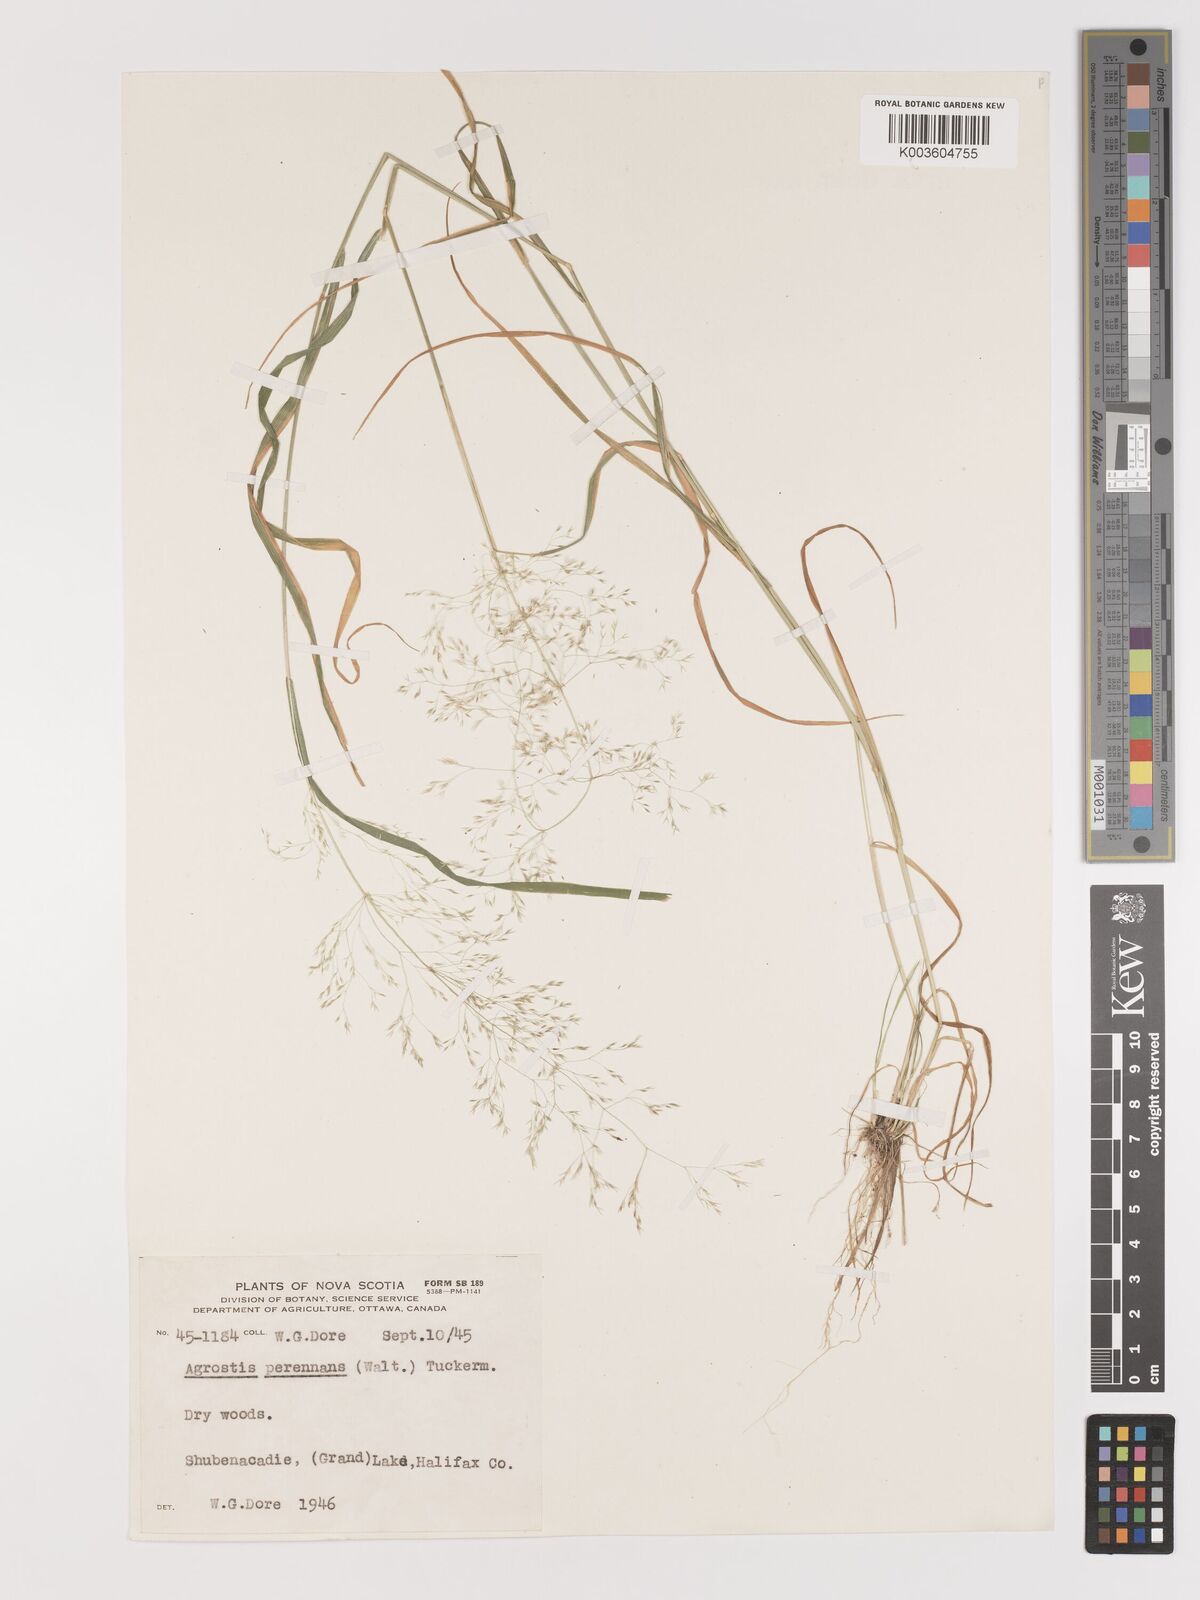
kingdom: Plantae
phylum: Tracheophyta
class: Liliopsida
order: Poales
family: Poaceae
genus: Agrostis
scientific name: Agrostis perennans
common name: Autumn bent
